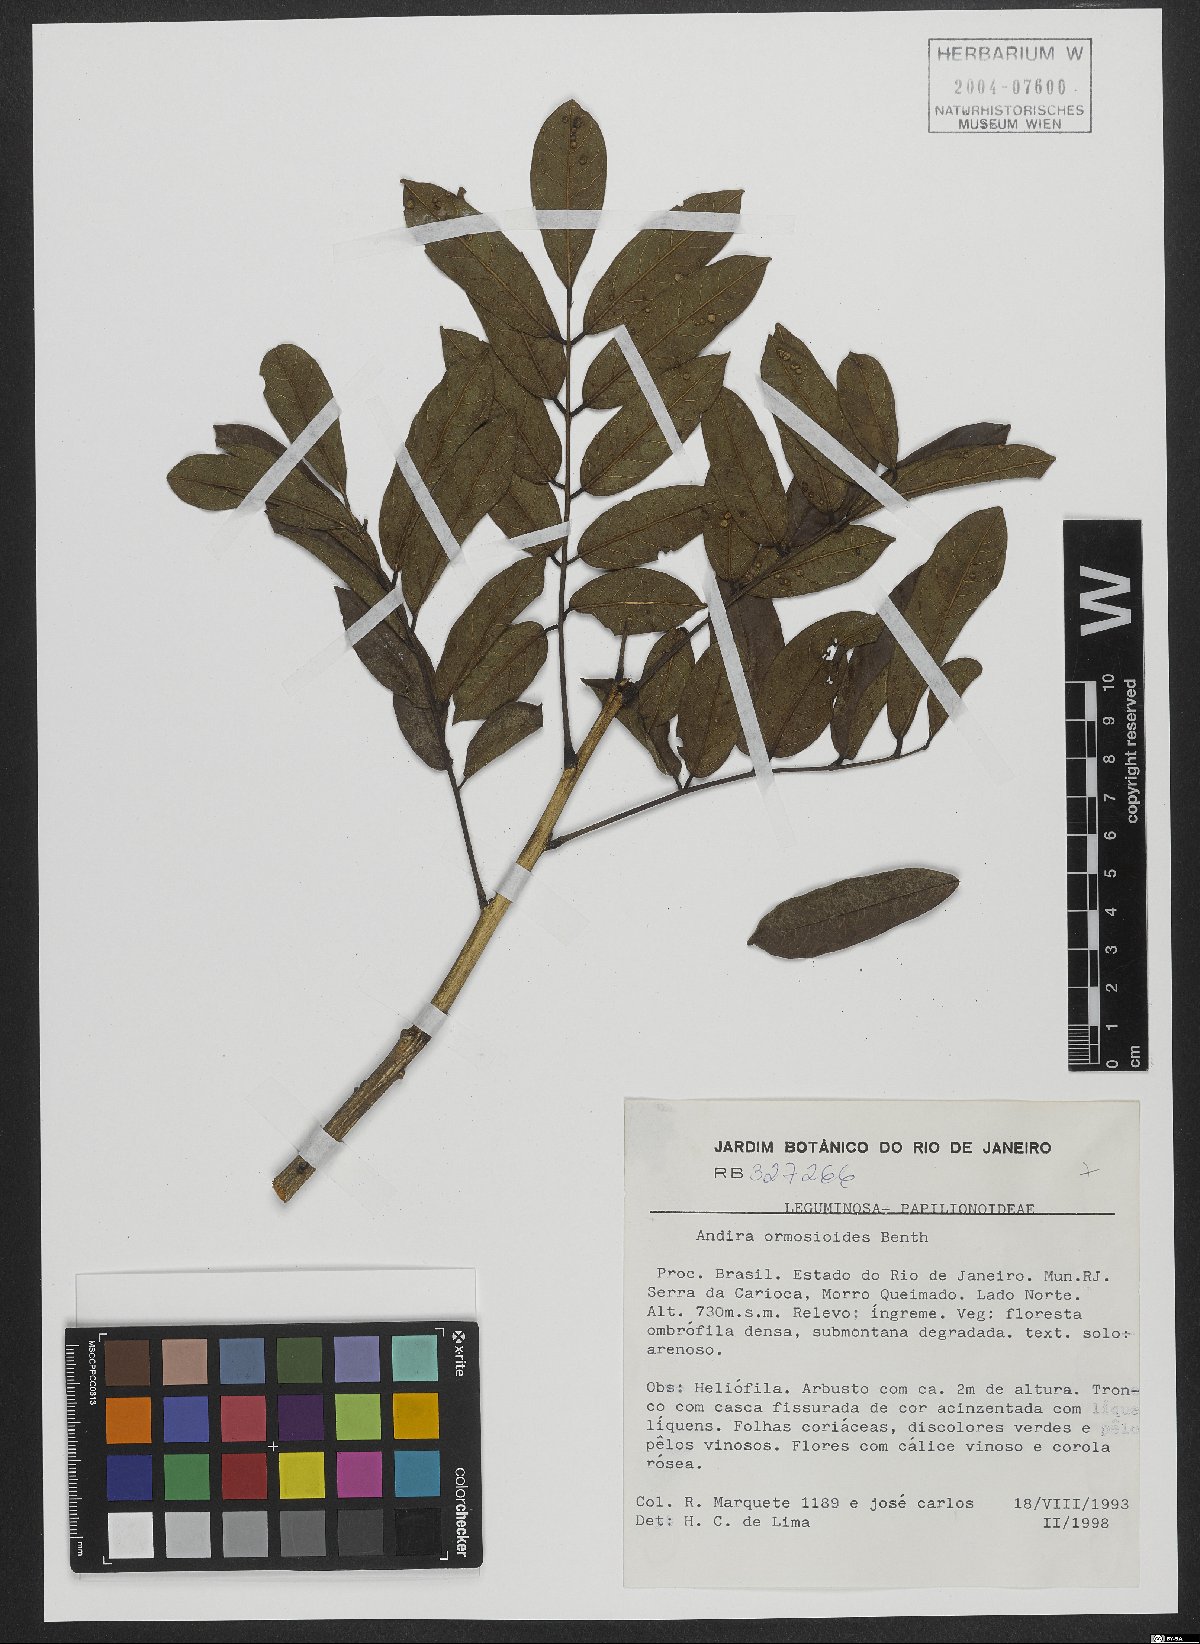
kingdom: Plantae
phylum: Tracheophyta
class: Magnoliopsida
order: Fabales
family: Fabaceae
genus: Andira
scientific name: Andira ormosioides
